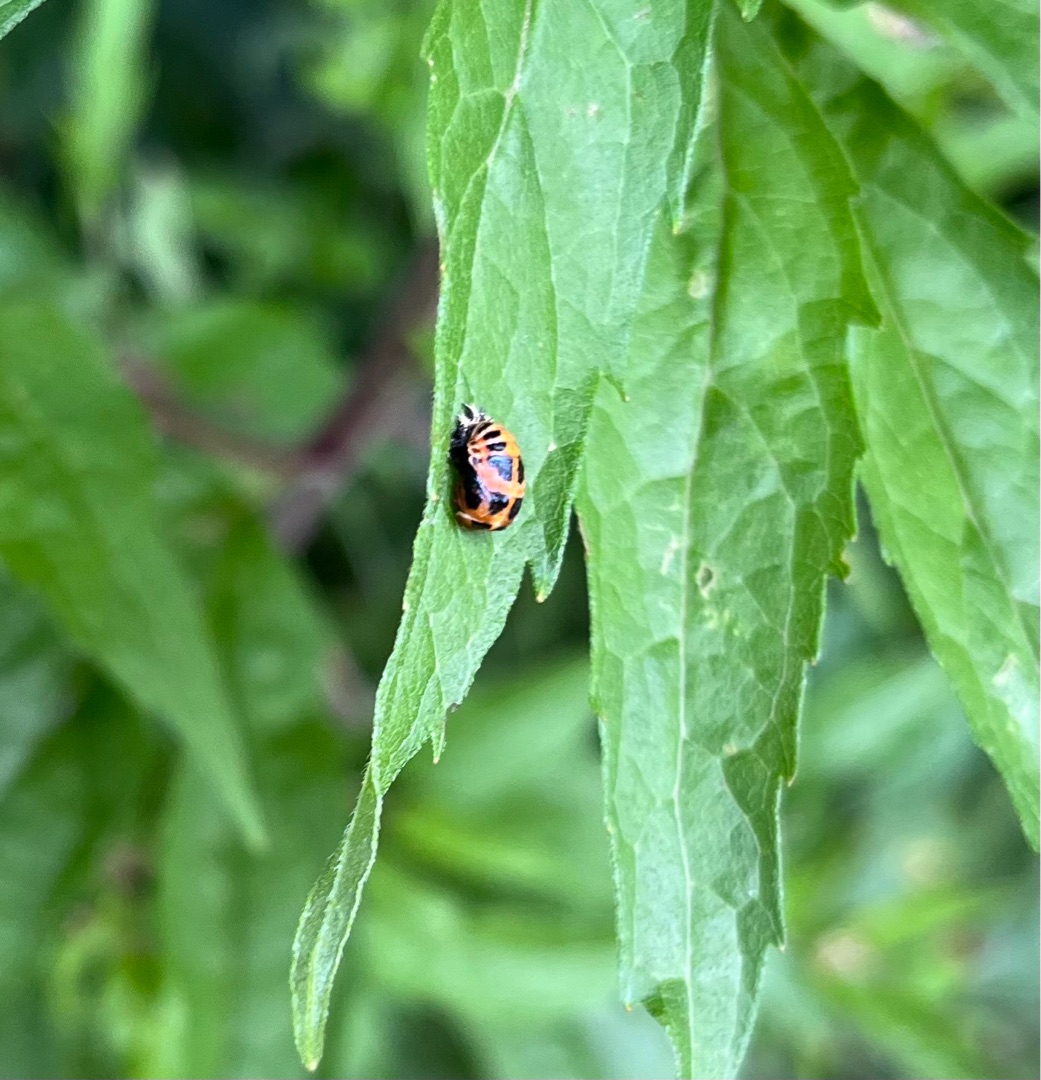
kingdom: Animalia
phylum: Arthropoda
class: Insecta
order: Coleoptera
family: Coccinellidae
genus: Harmonia
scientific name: Harmonia axyridis
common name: Harlekinmariehøne
